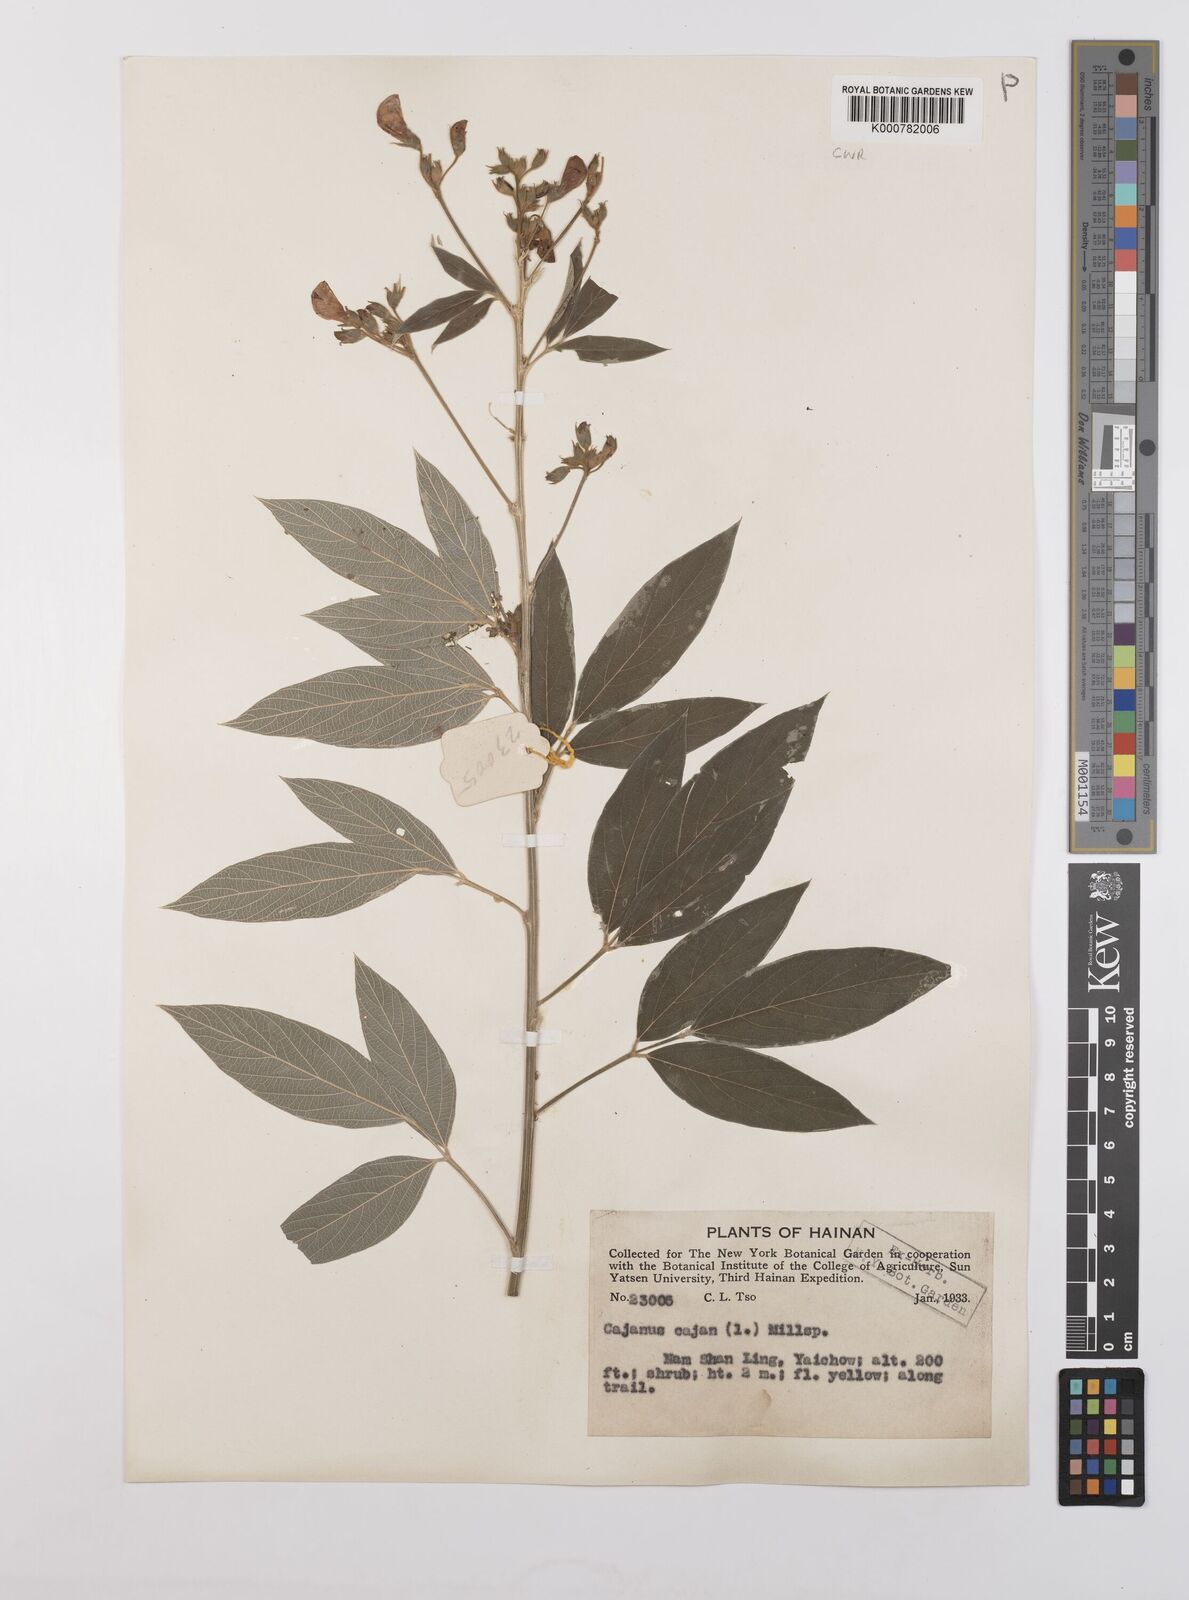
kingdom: Plantae
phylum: Tracheophyta
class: Magnoliopsida
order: Fabales
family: Fabaceae
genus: Cajanus
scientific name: Cajanus
